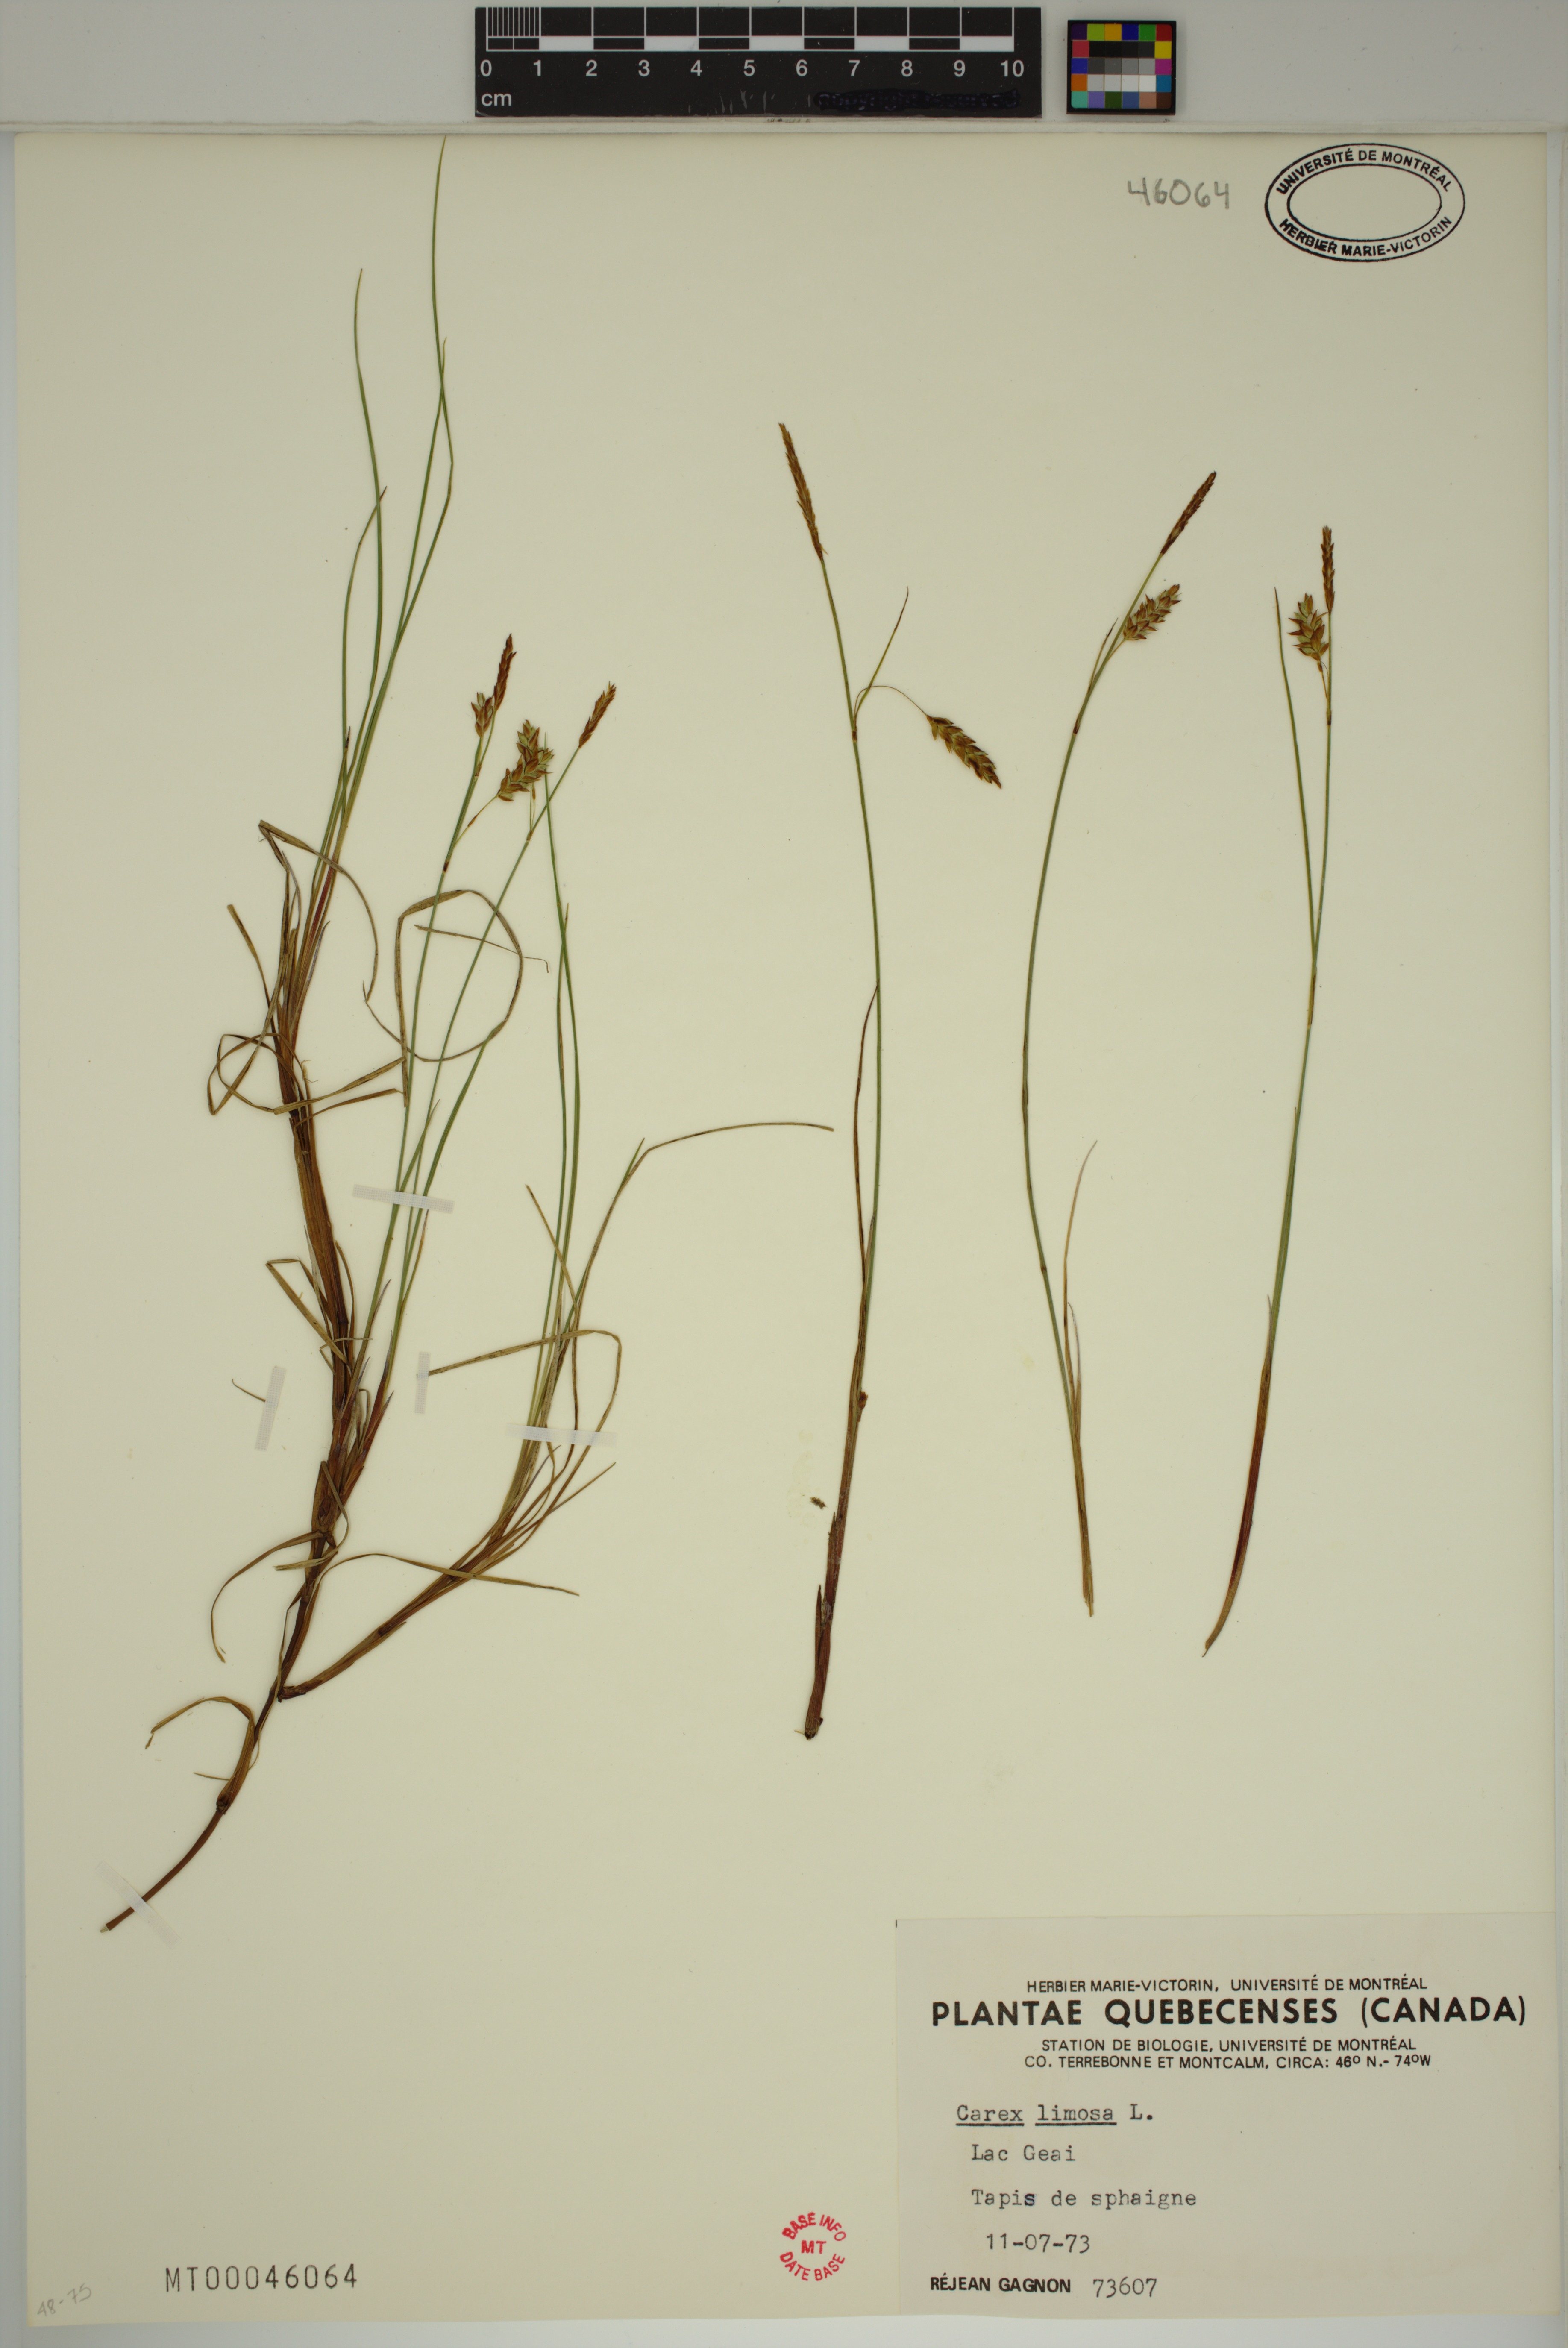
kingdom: Plantae
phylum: Tracheophyta
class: Liliopsida
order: Poales
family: Cyperaceae
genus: Carex
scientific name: Carex limosa
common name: Bog sedge
